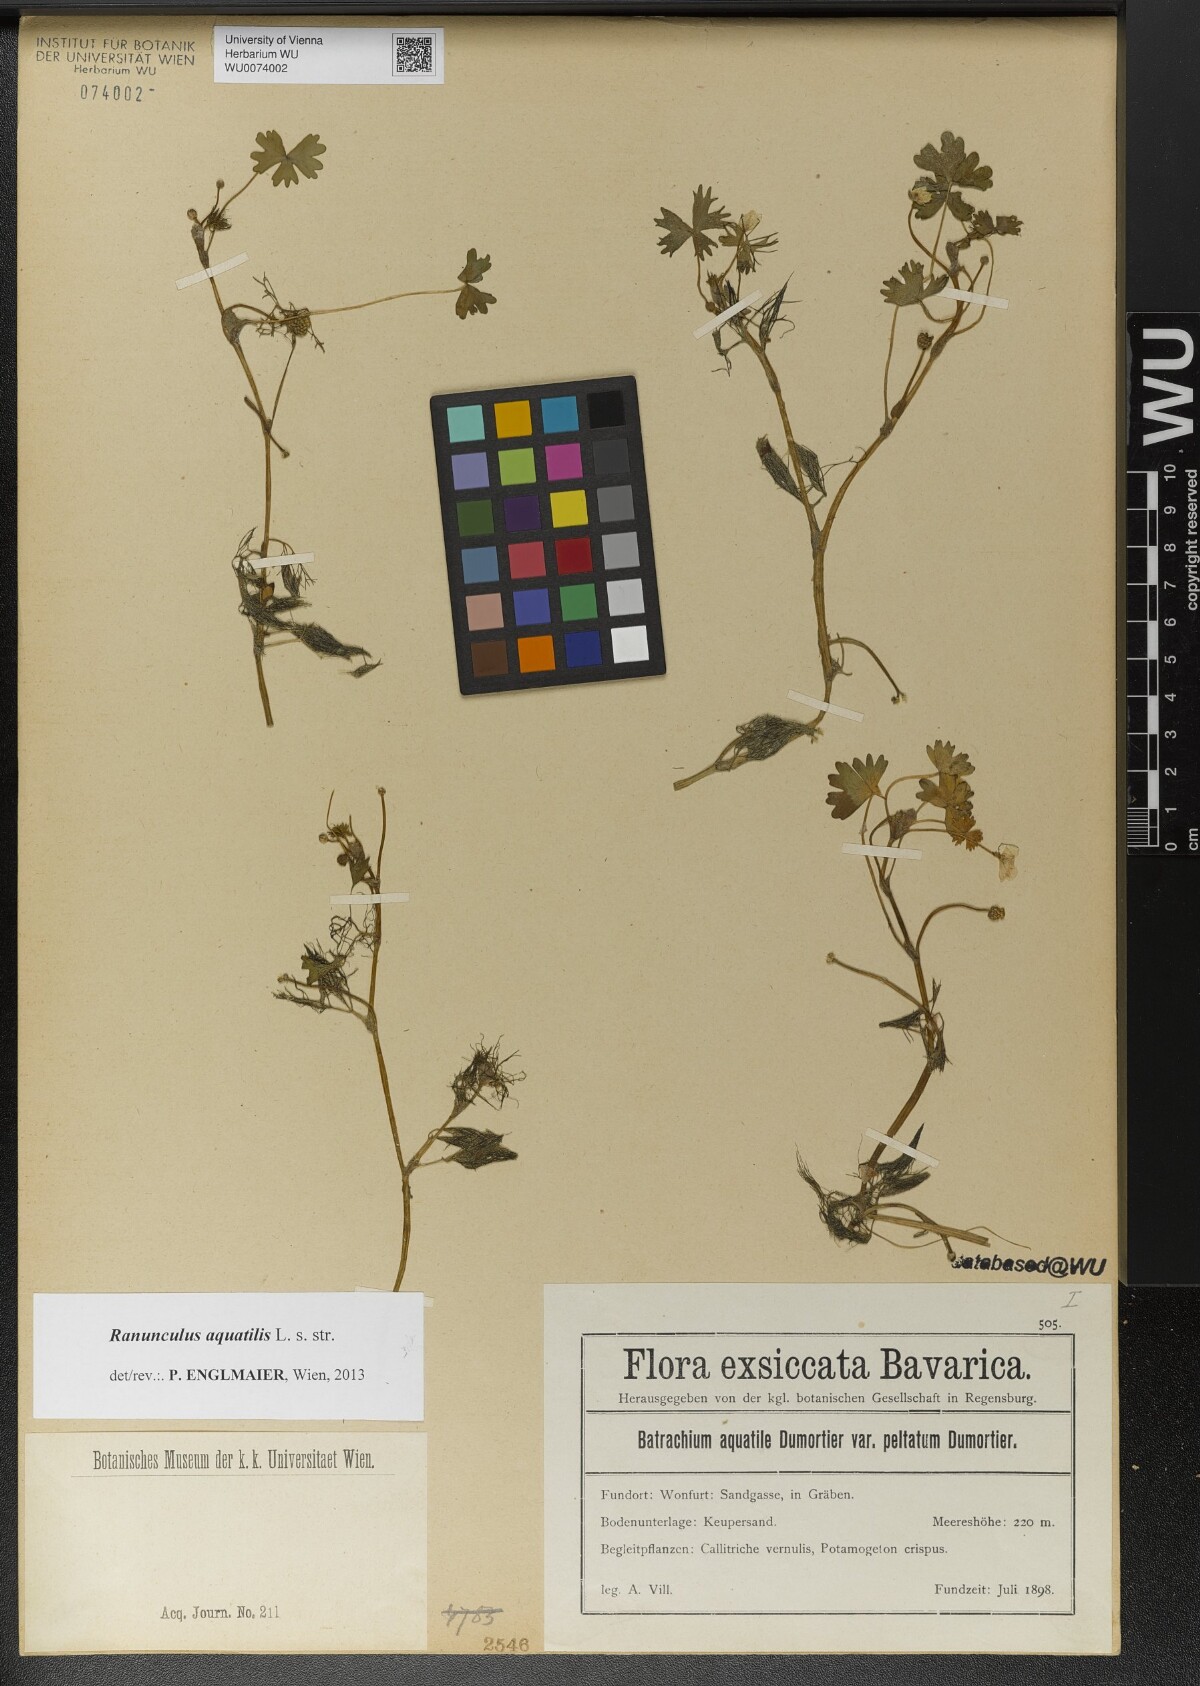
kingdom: Plantae
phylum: Tracheophyta
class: Magnoliopsida
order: Ranunculales
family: Ranunculaceae
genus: Ranunculus
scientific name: Ranunculus peltatus
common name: Pond water-crowfoot
